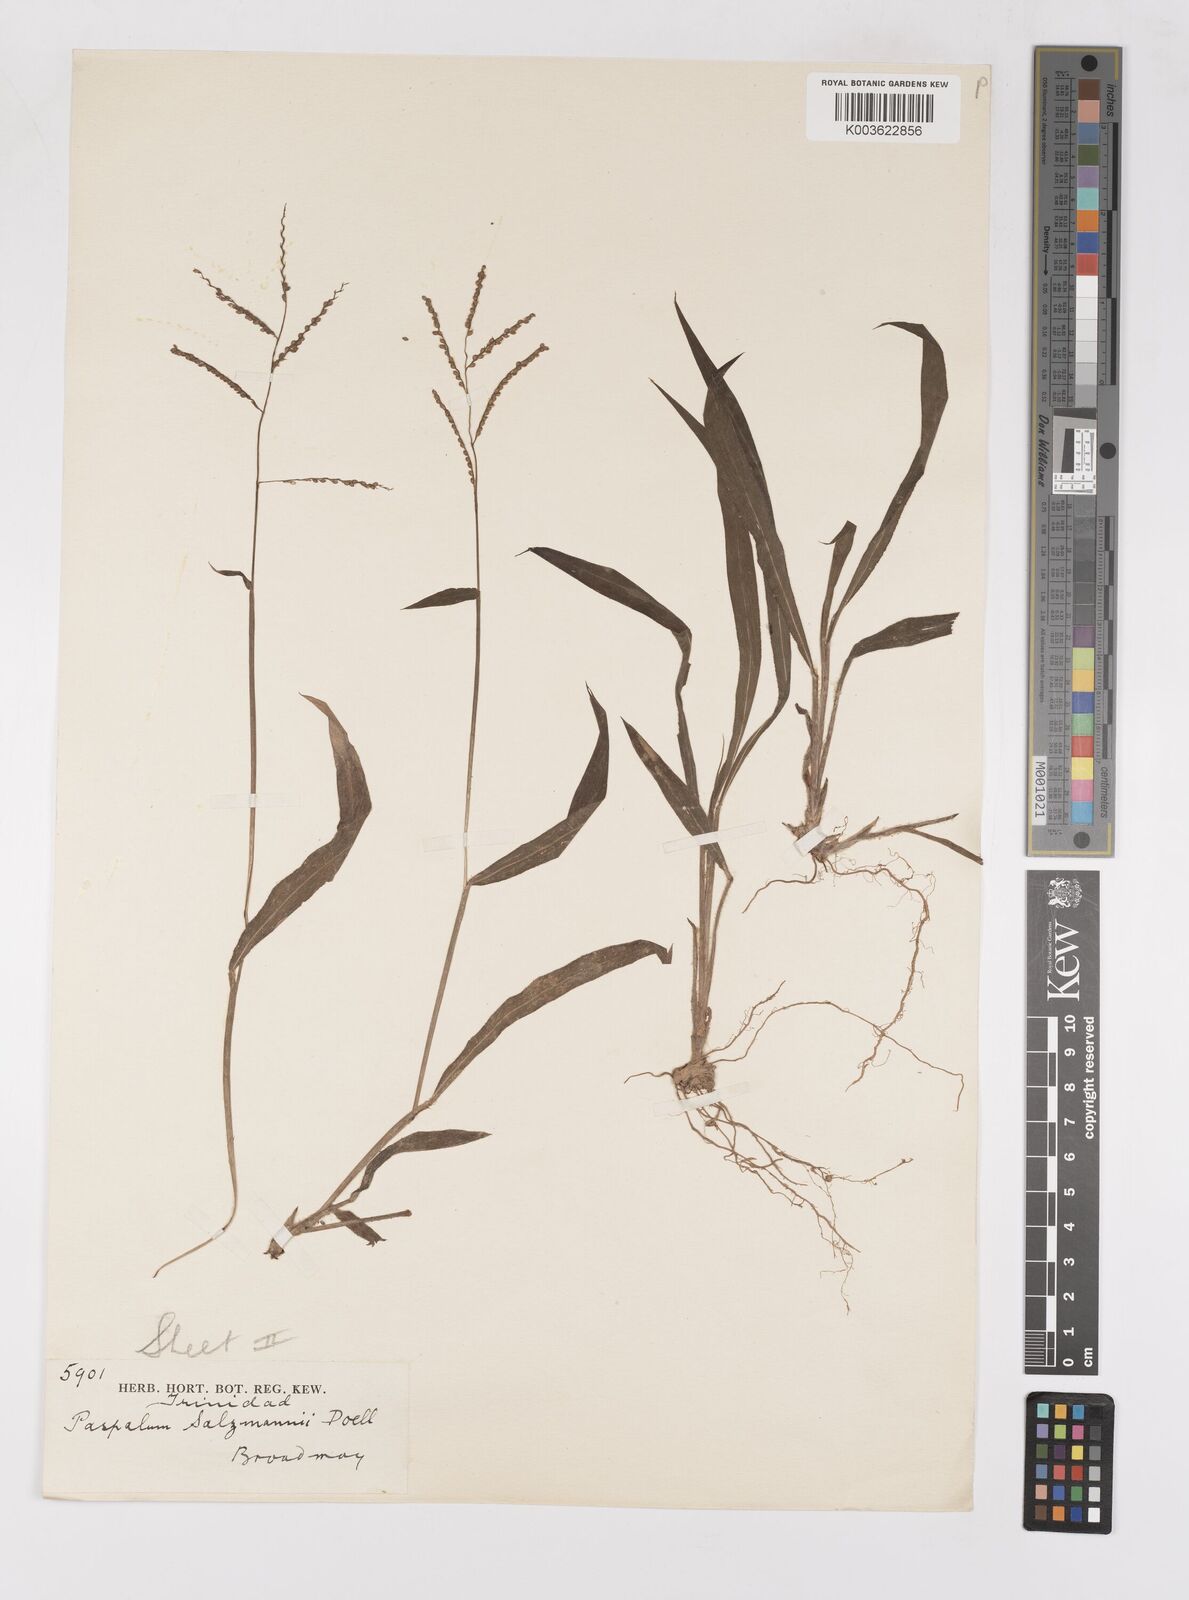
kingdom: Plantae
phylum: Tracheophyta
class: Liliopsida
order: Poales
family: Poaceae
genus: Paspalum
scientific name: Paspalum oligostachyum
